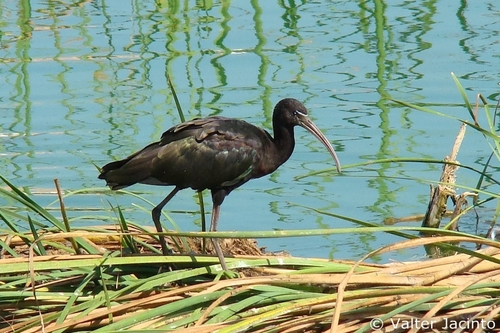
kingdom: Animalia
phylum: Chordata
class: Aves
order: Pelecaniformes
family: Threskiornithidae
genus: Plegadis
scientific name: Plegadis falcinellus
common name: Glossy ibis
